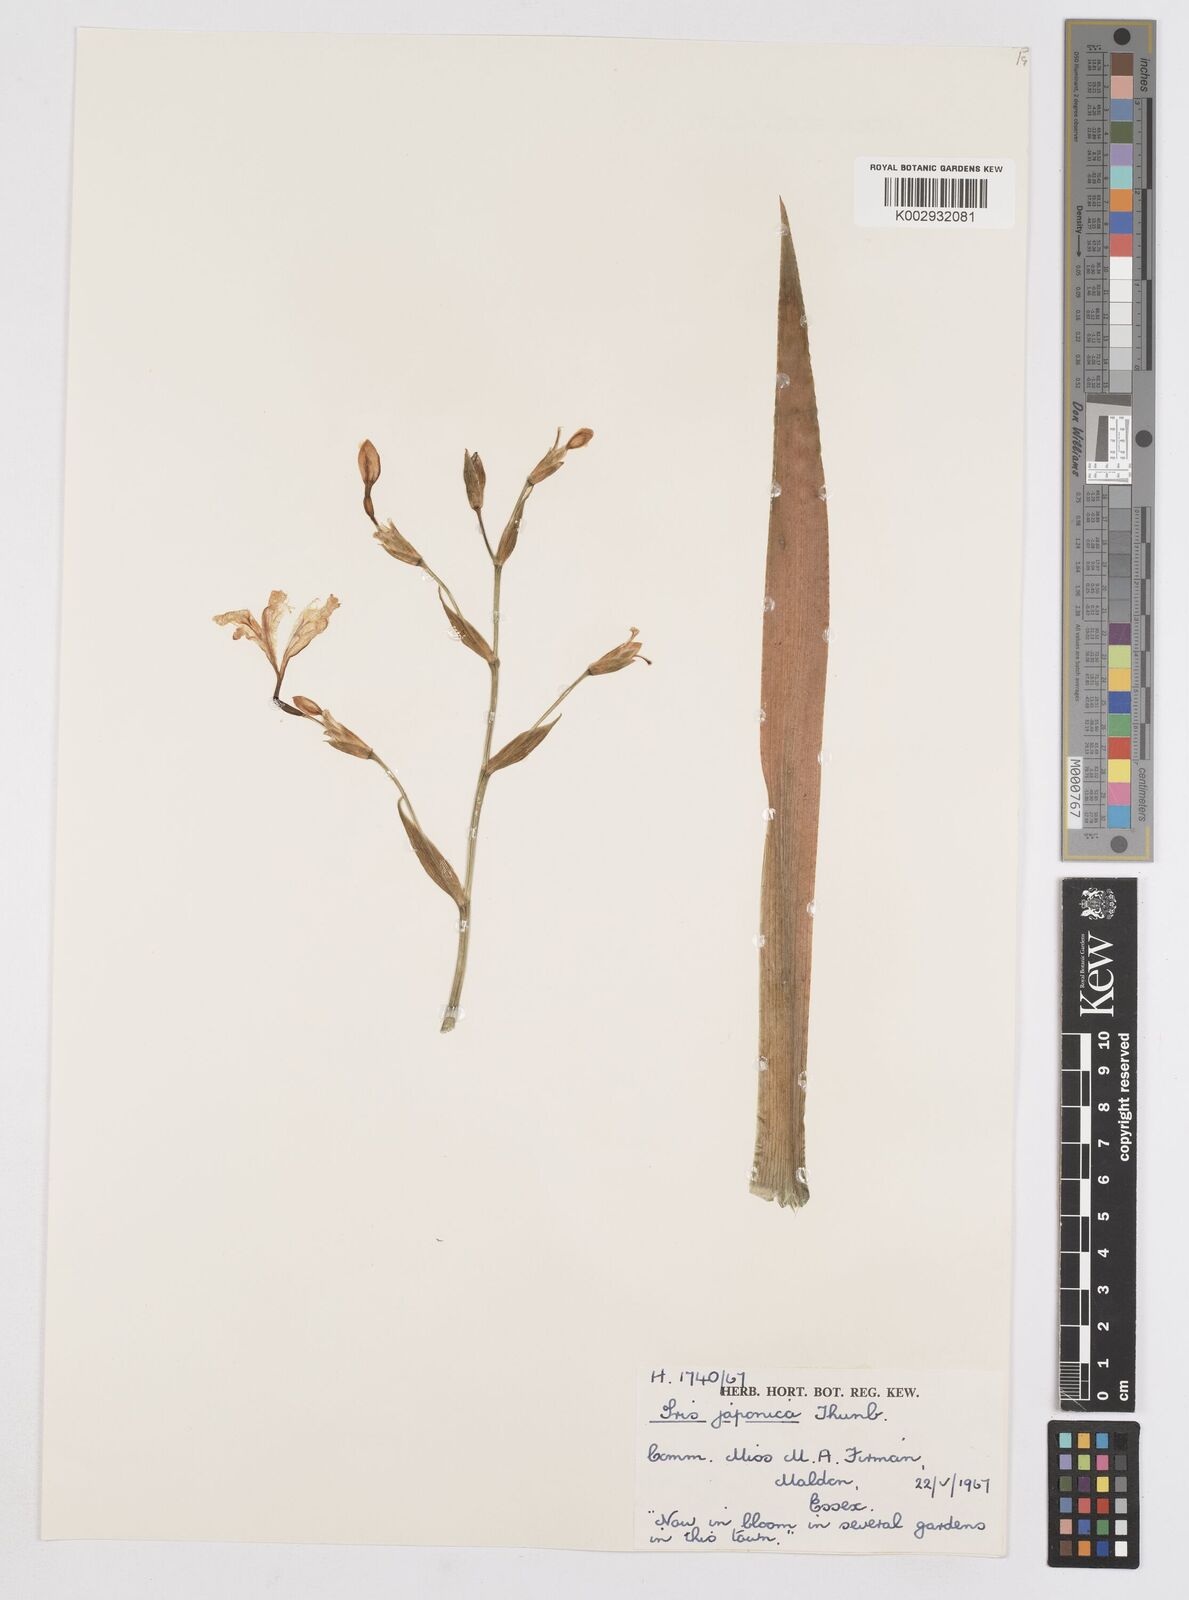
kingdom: Plantae
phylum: Tracheophyta
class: Liliopsida
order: Asparagales
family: Iridaceae
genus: Iris
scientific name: Iris japonica
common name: Butterfly-flower
